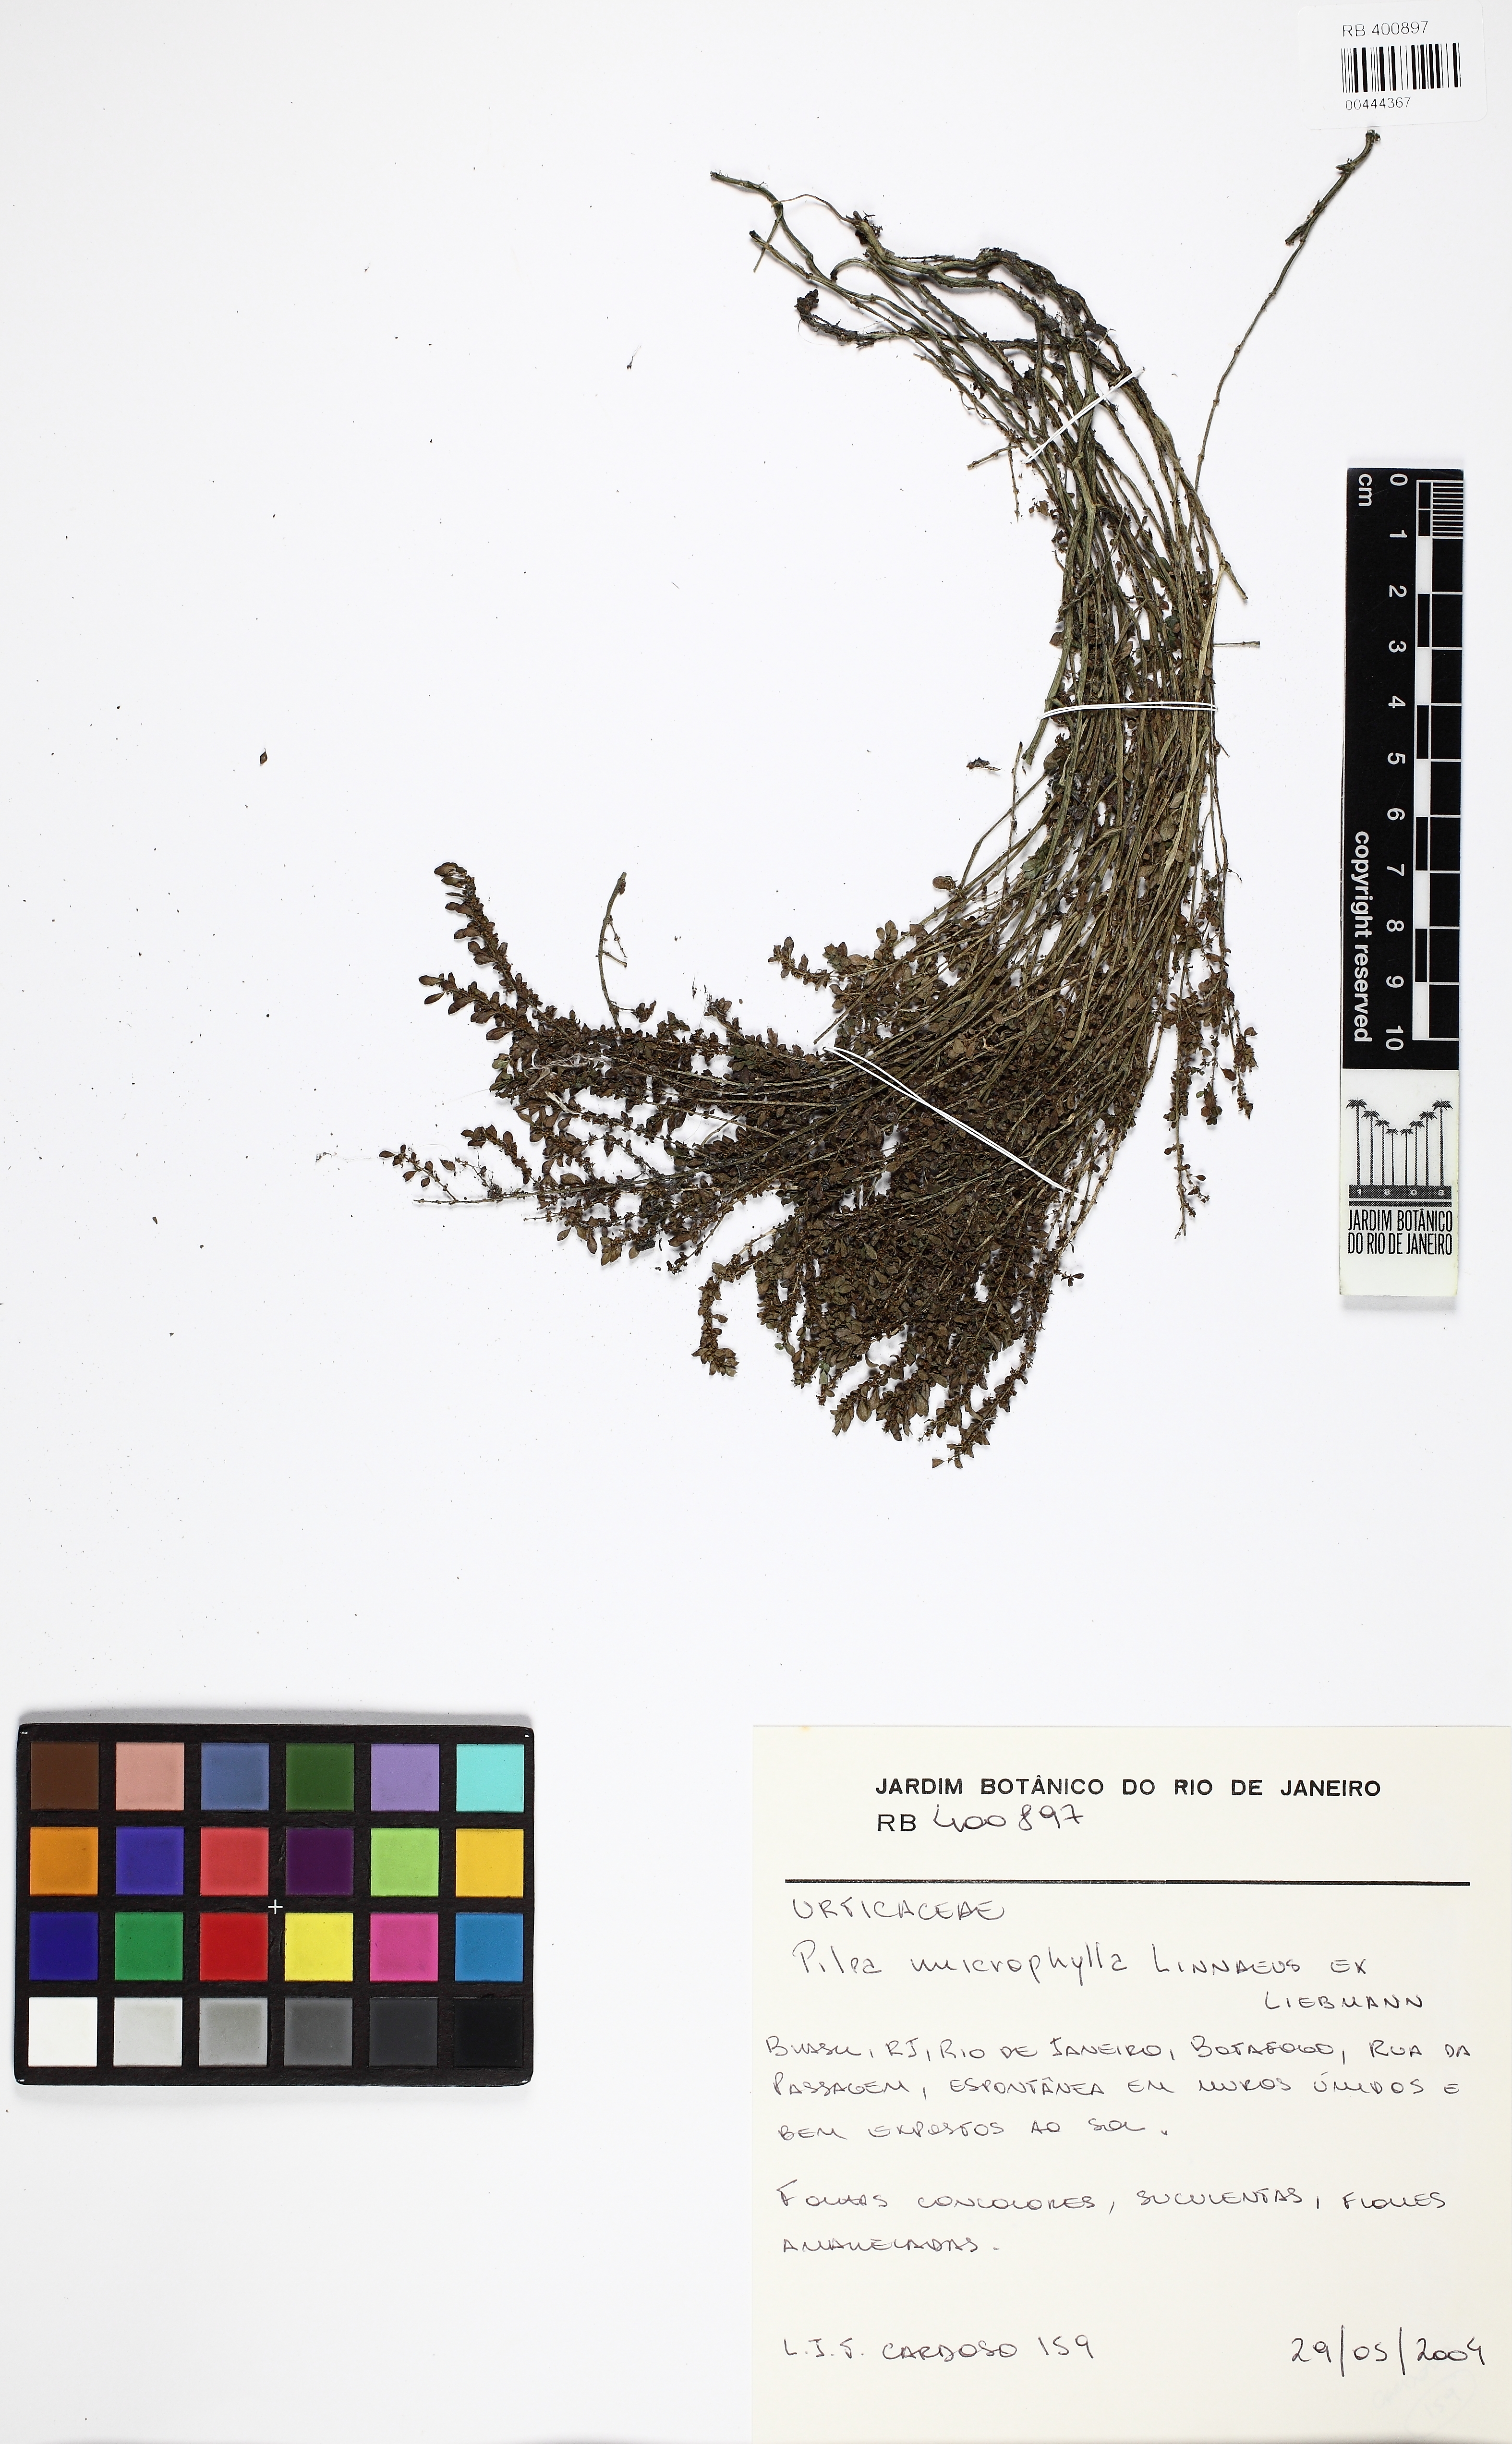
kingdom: Plantae
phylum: Tracheophyta
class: Magnoliopsida
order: Rosales
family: Urticaceae
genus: Pilea
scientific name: Pilea microphylla
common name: Artillery-plant
